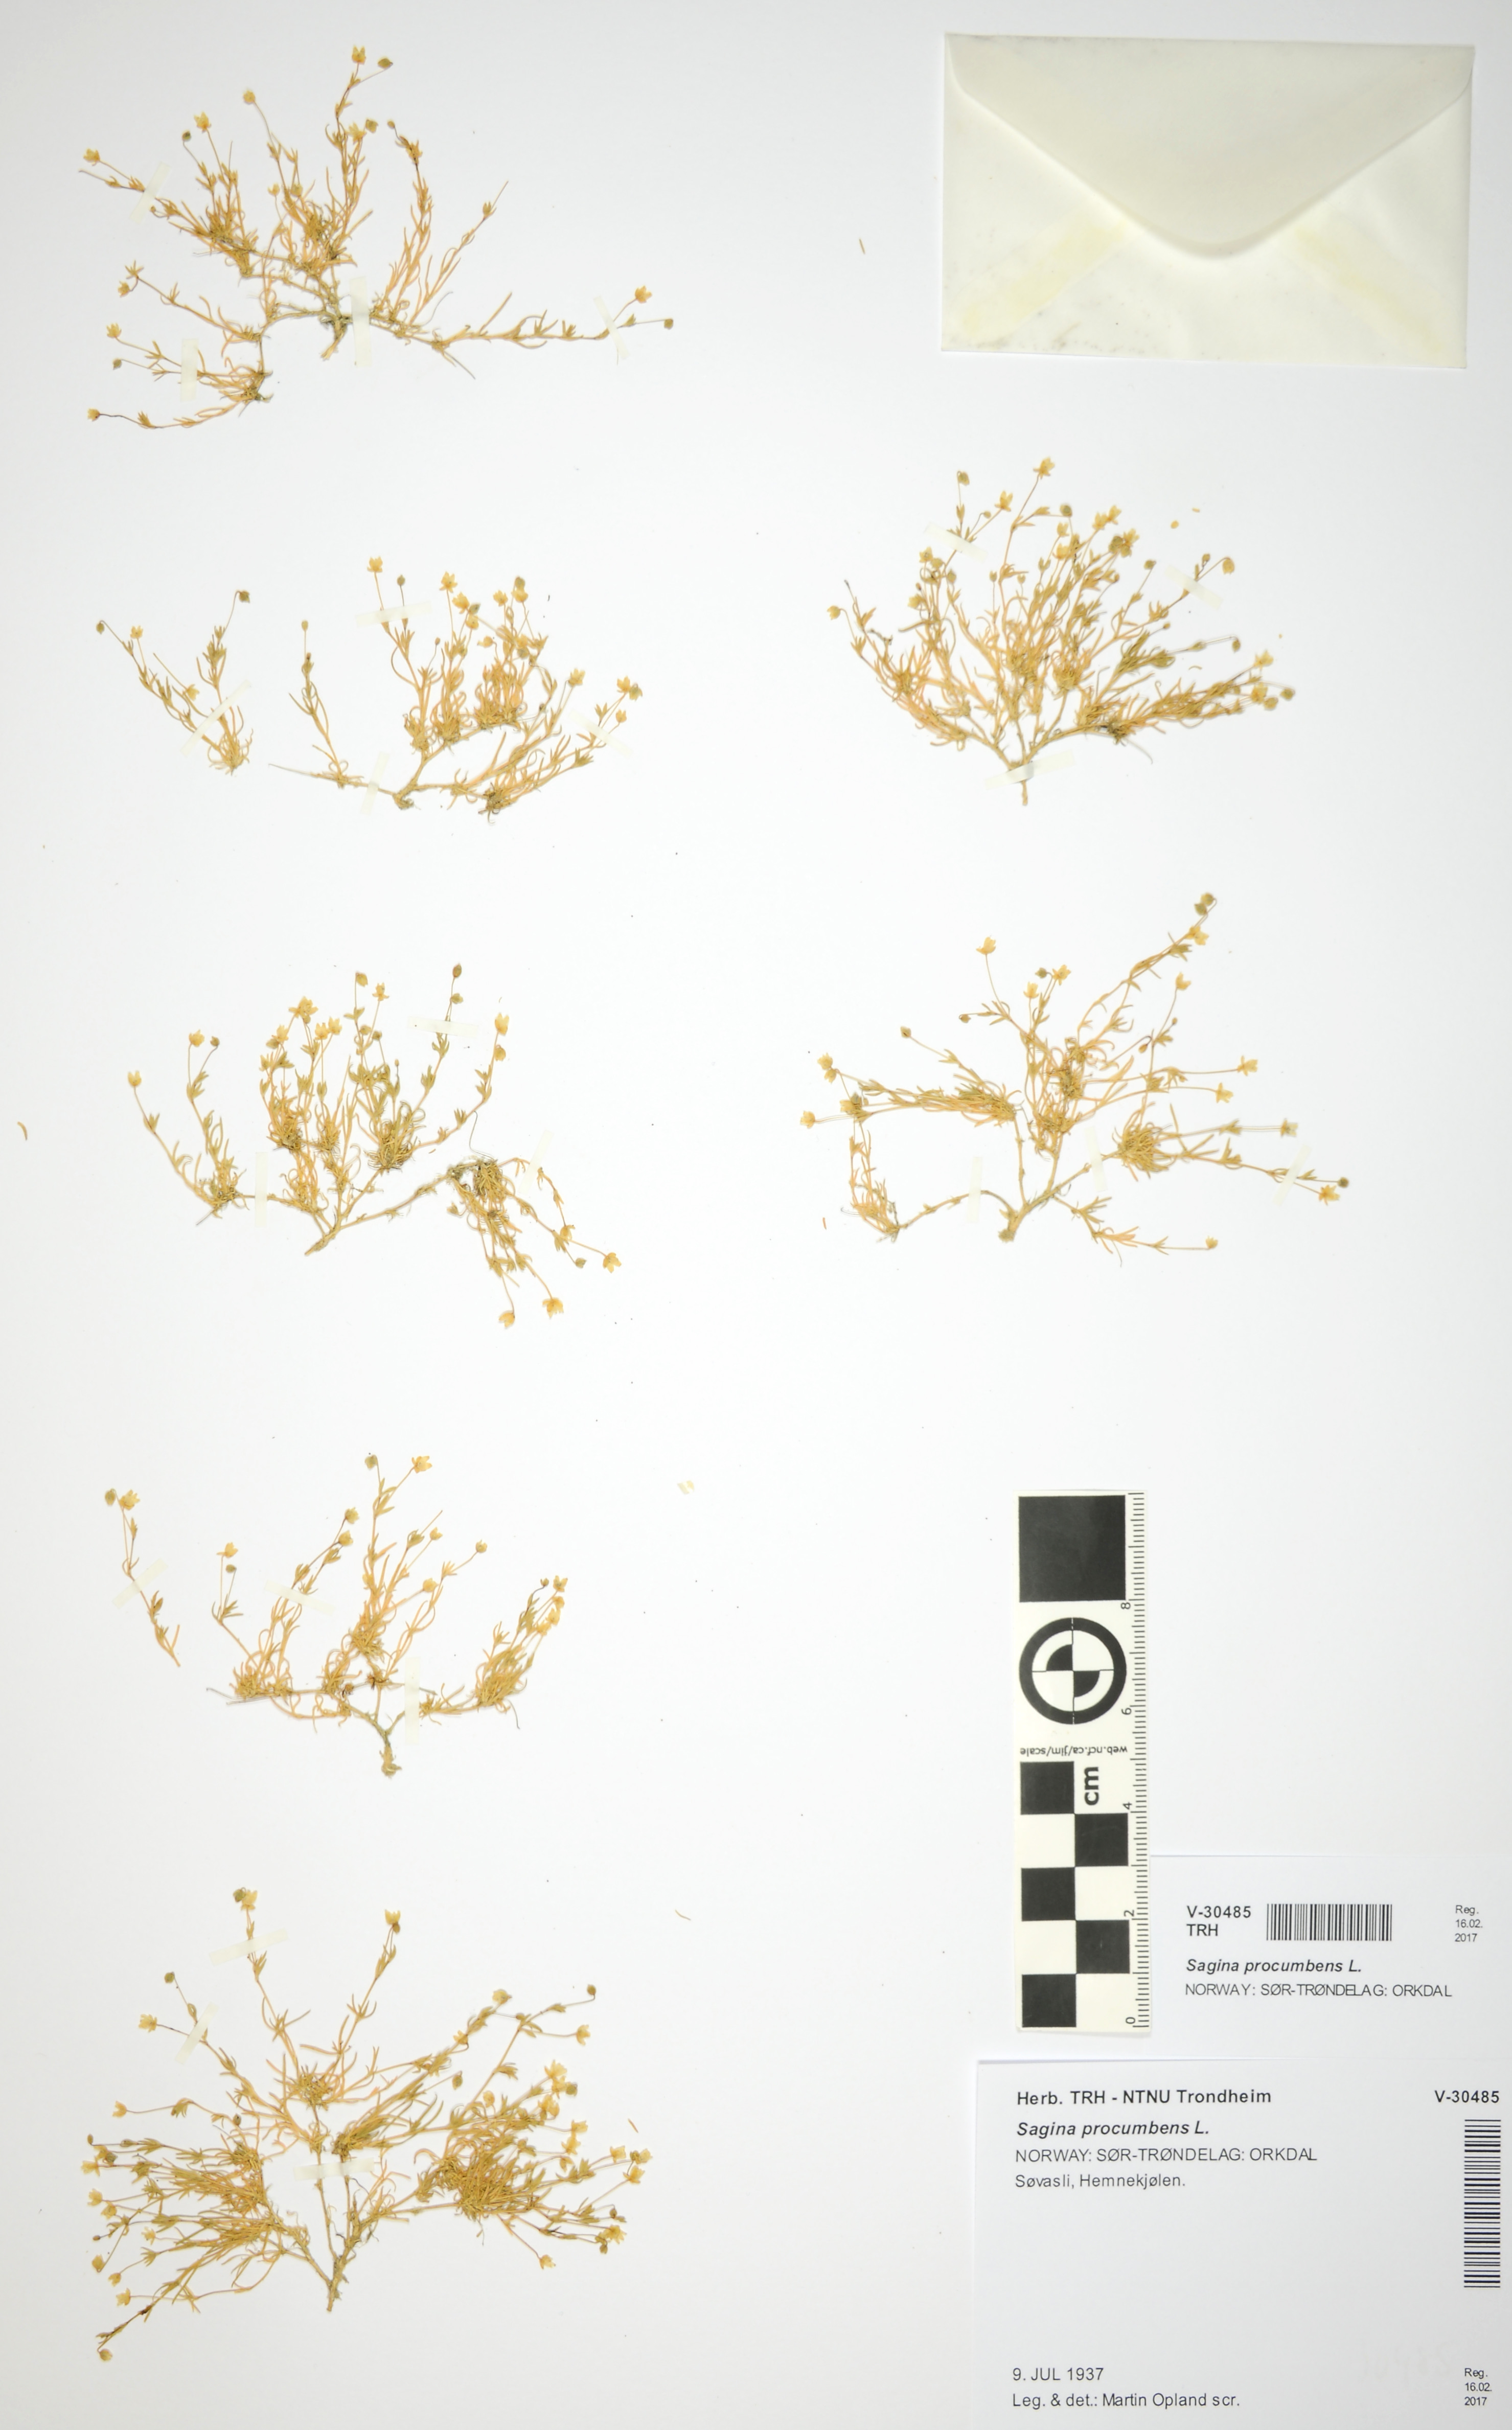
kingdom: Plantae
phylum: Tracheophyta
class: Magnoliopsida
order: Caryophyllales
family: Caryophyllaceae
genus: Sagina
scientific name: Sagina procumbens
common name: Procumbent pearlwort
